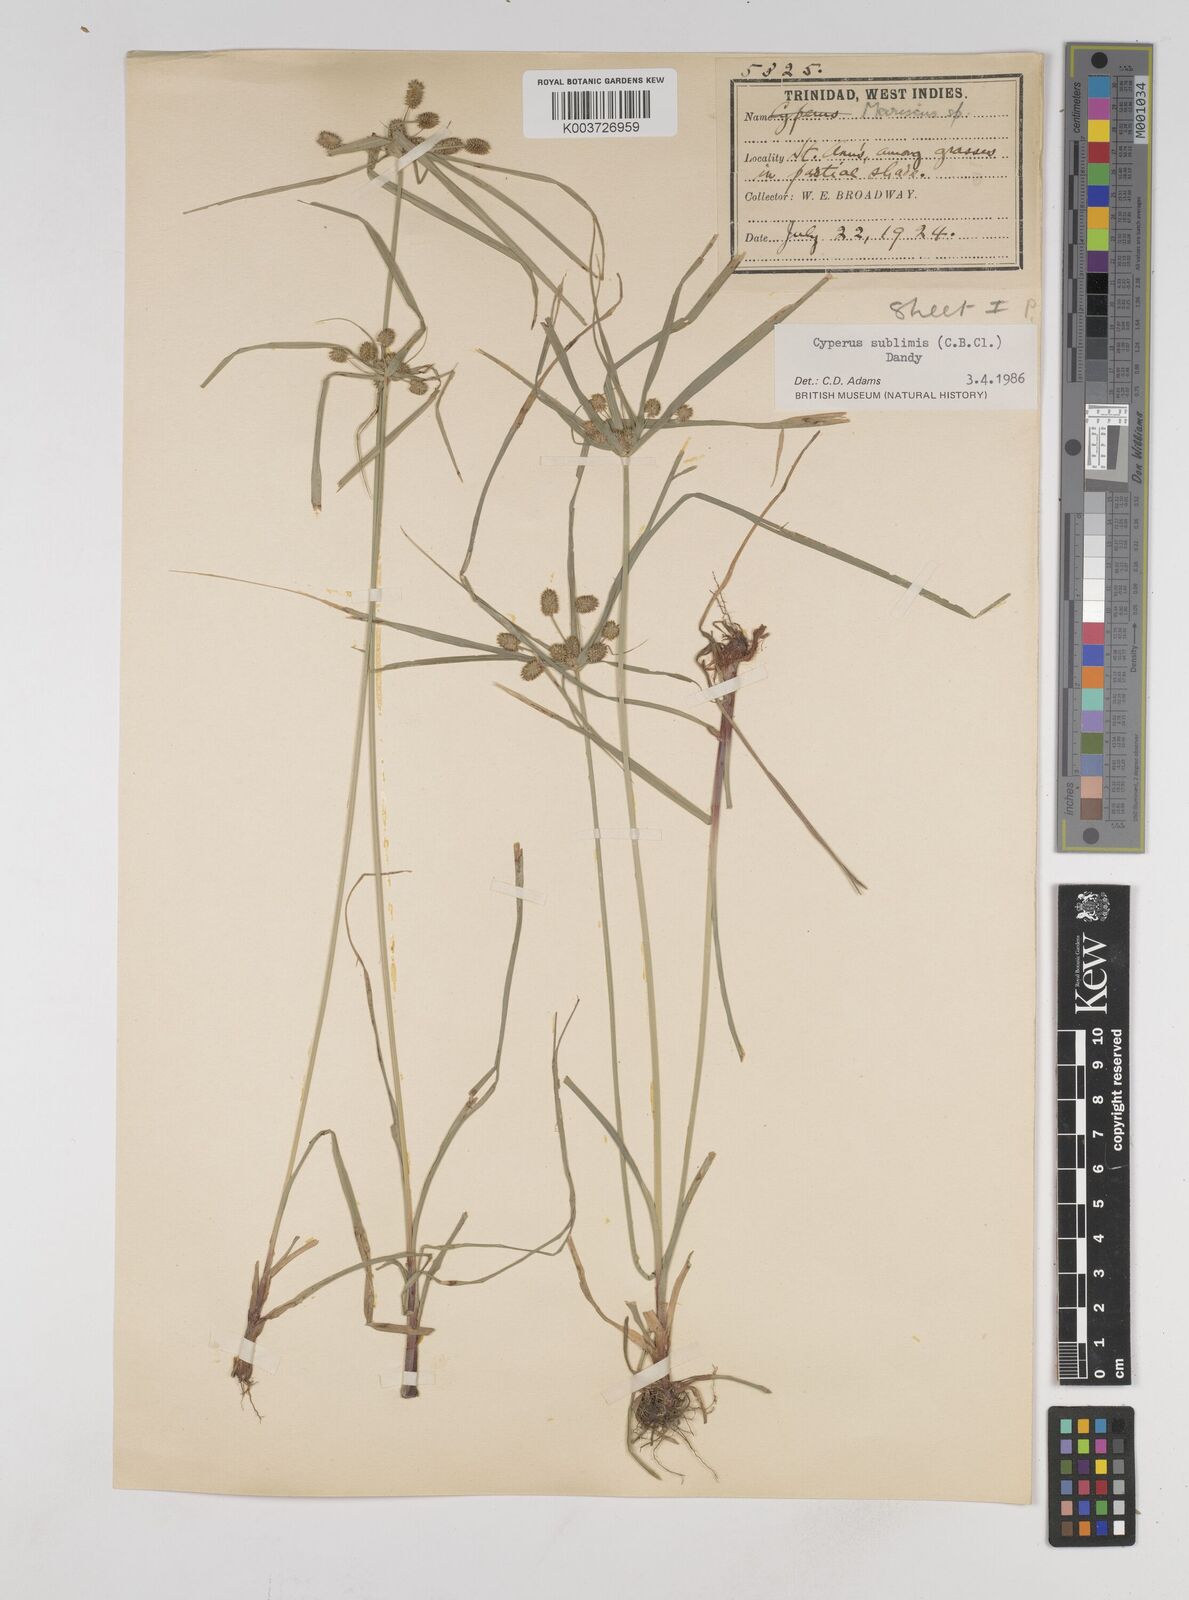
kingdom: Plantae
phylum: Tracheophyta
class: Liliopsida
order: Poales
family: Cyperaceae
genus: Cyperus
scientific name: Cyperus cyperoides
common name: Pacific island flat sedge
